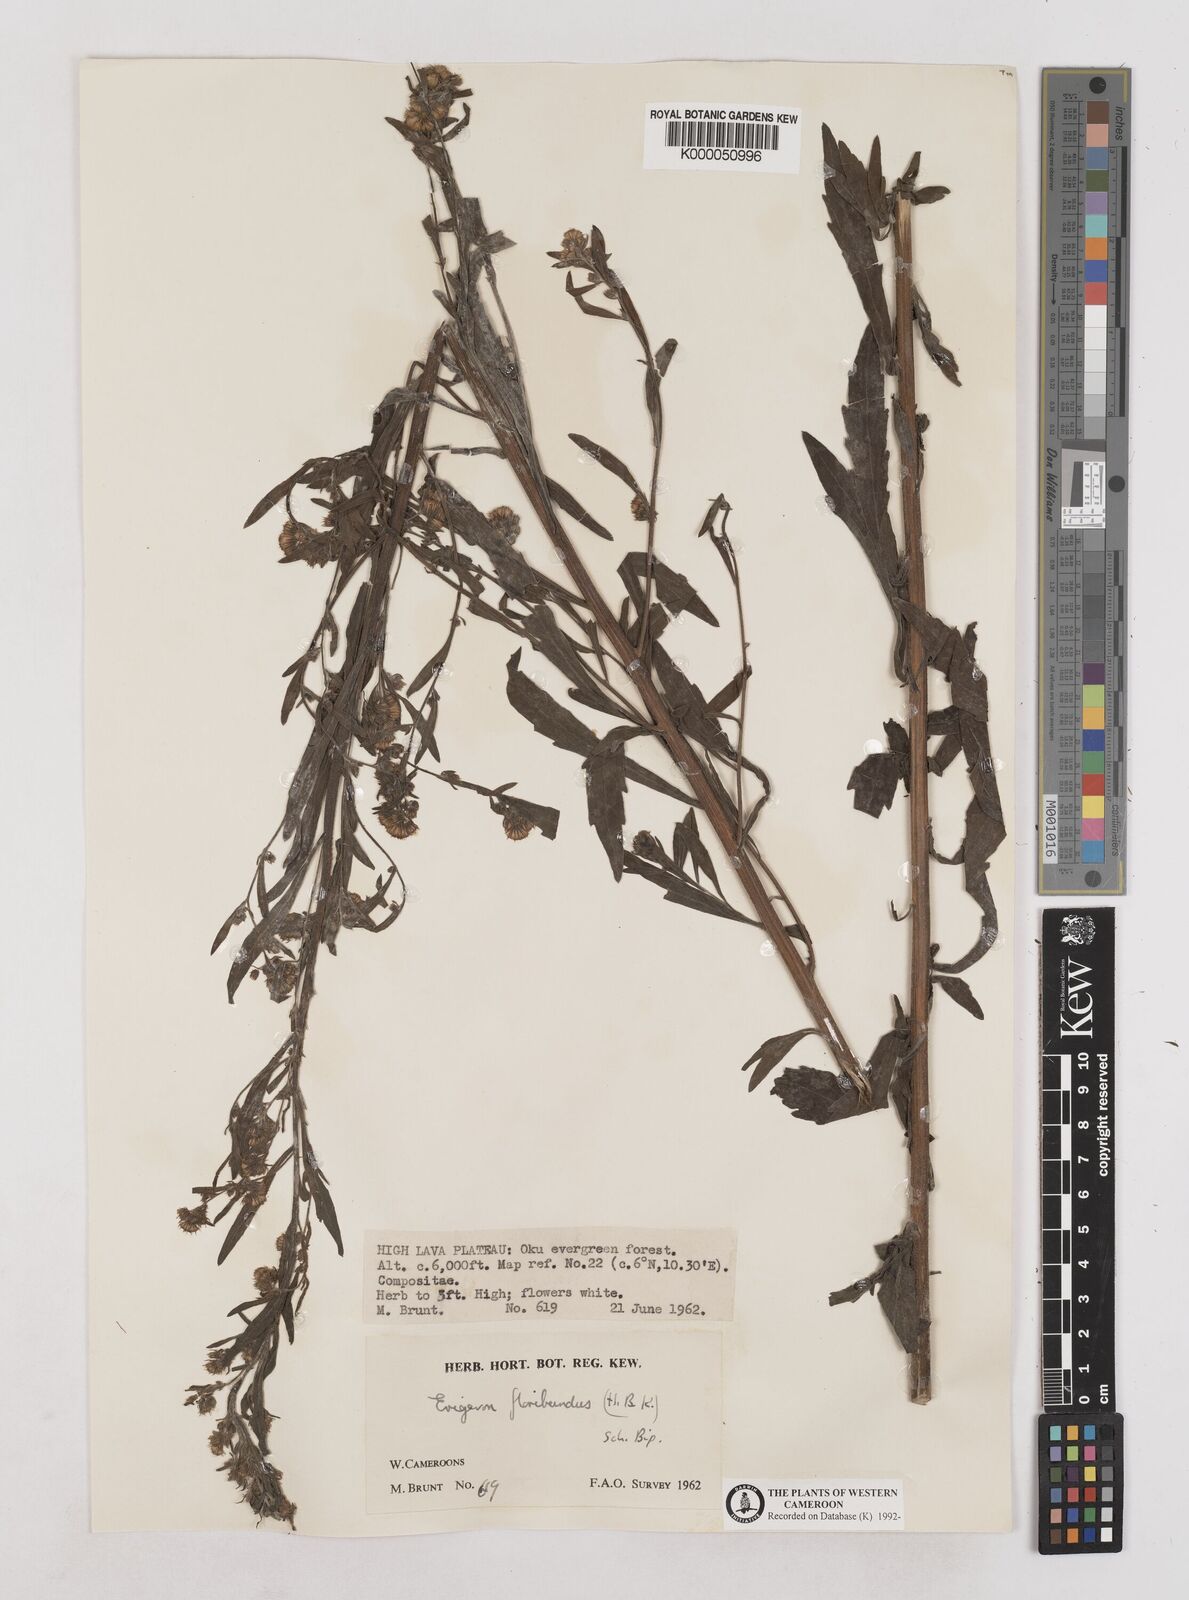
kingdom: Plantae
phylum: Tracheophyta
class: Magnoliopsida
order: Asterales
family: Asteraceae
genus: Erigeron
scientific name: Erigeron sumatrensis
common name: Daisy
